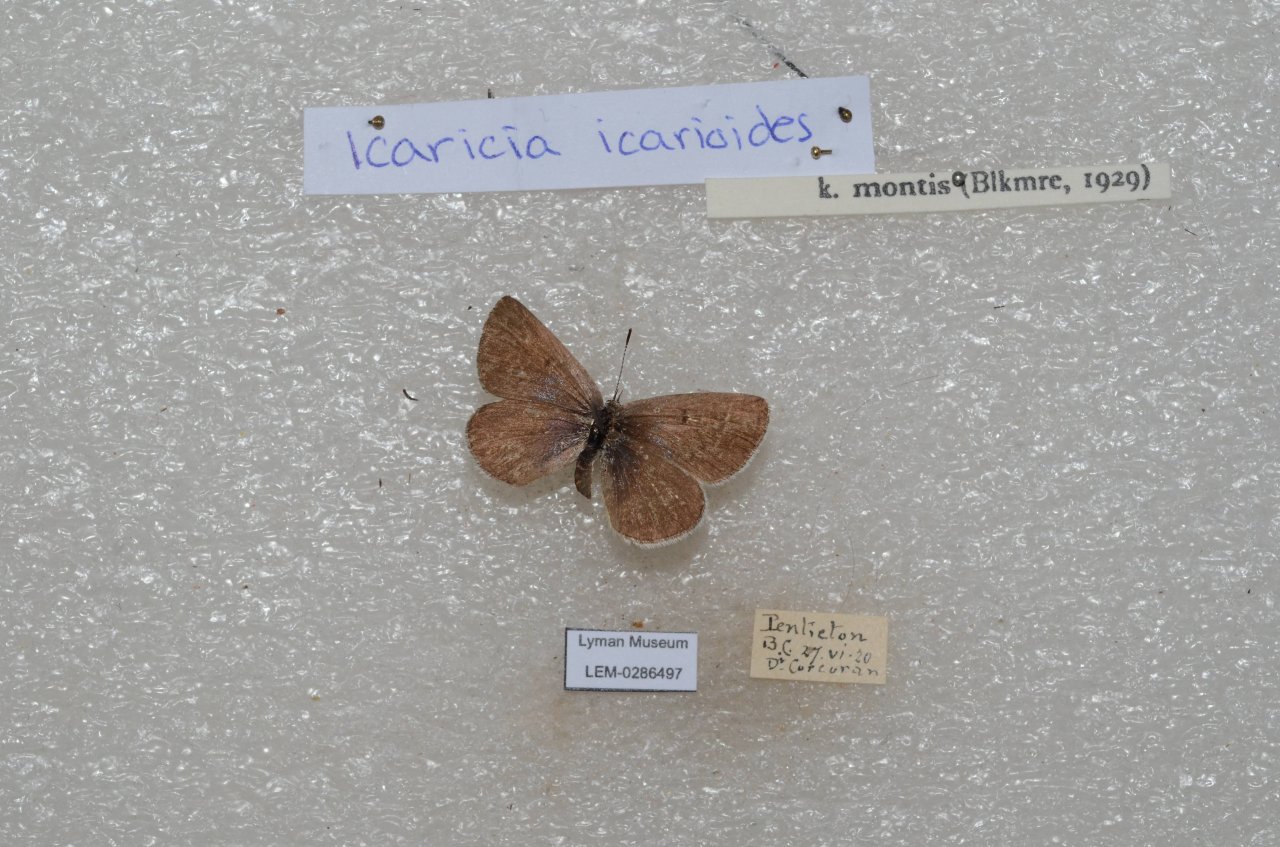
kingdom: Animalia
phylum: Arthropoda
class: Insecta
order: Lepidoptera
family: Lycaenidae
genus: Icaricia
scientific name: Icaricia icarioides
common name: Boisduval's Blue
